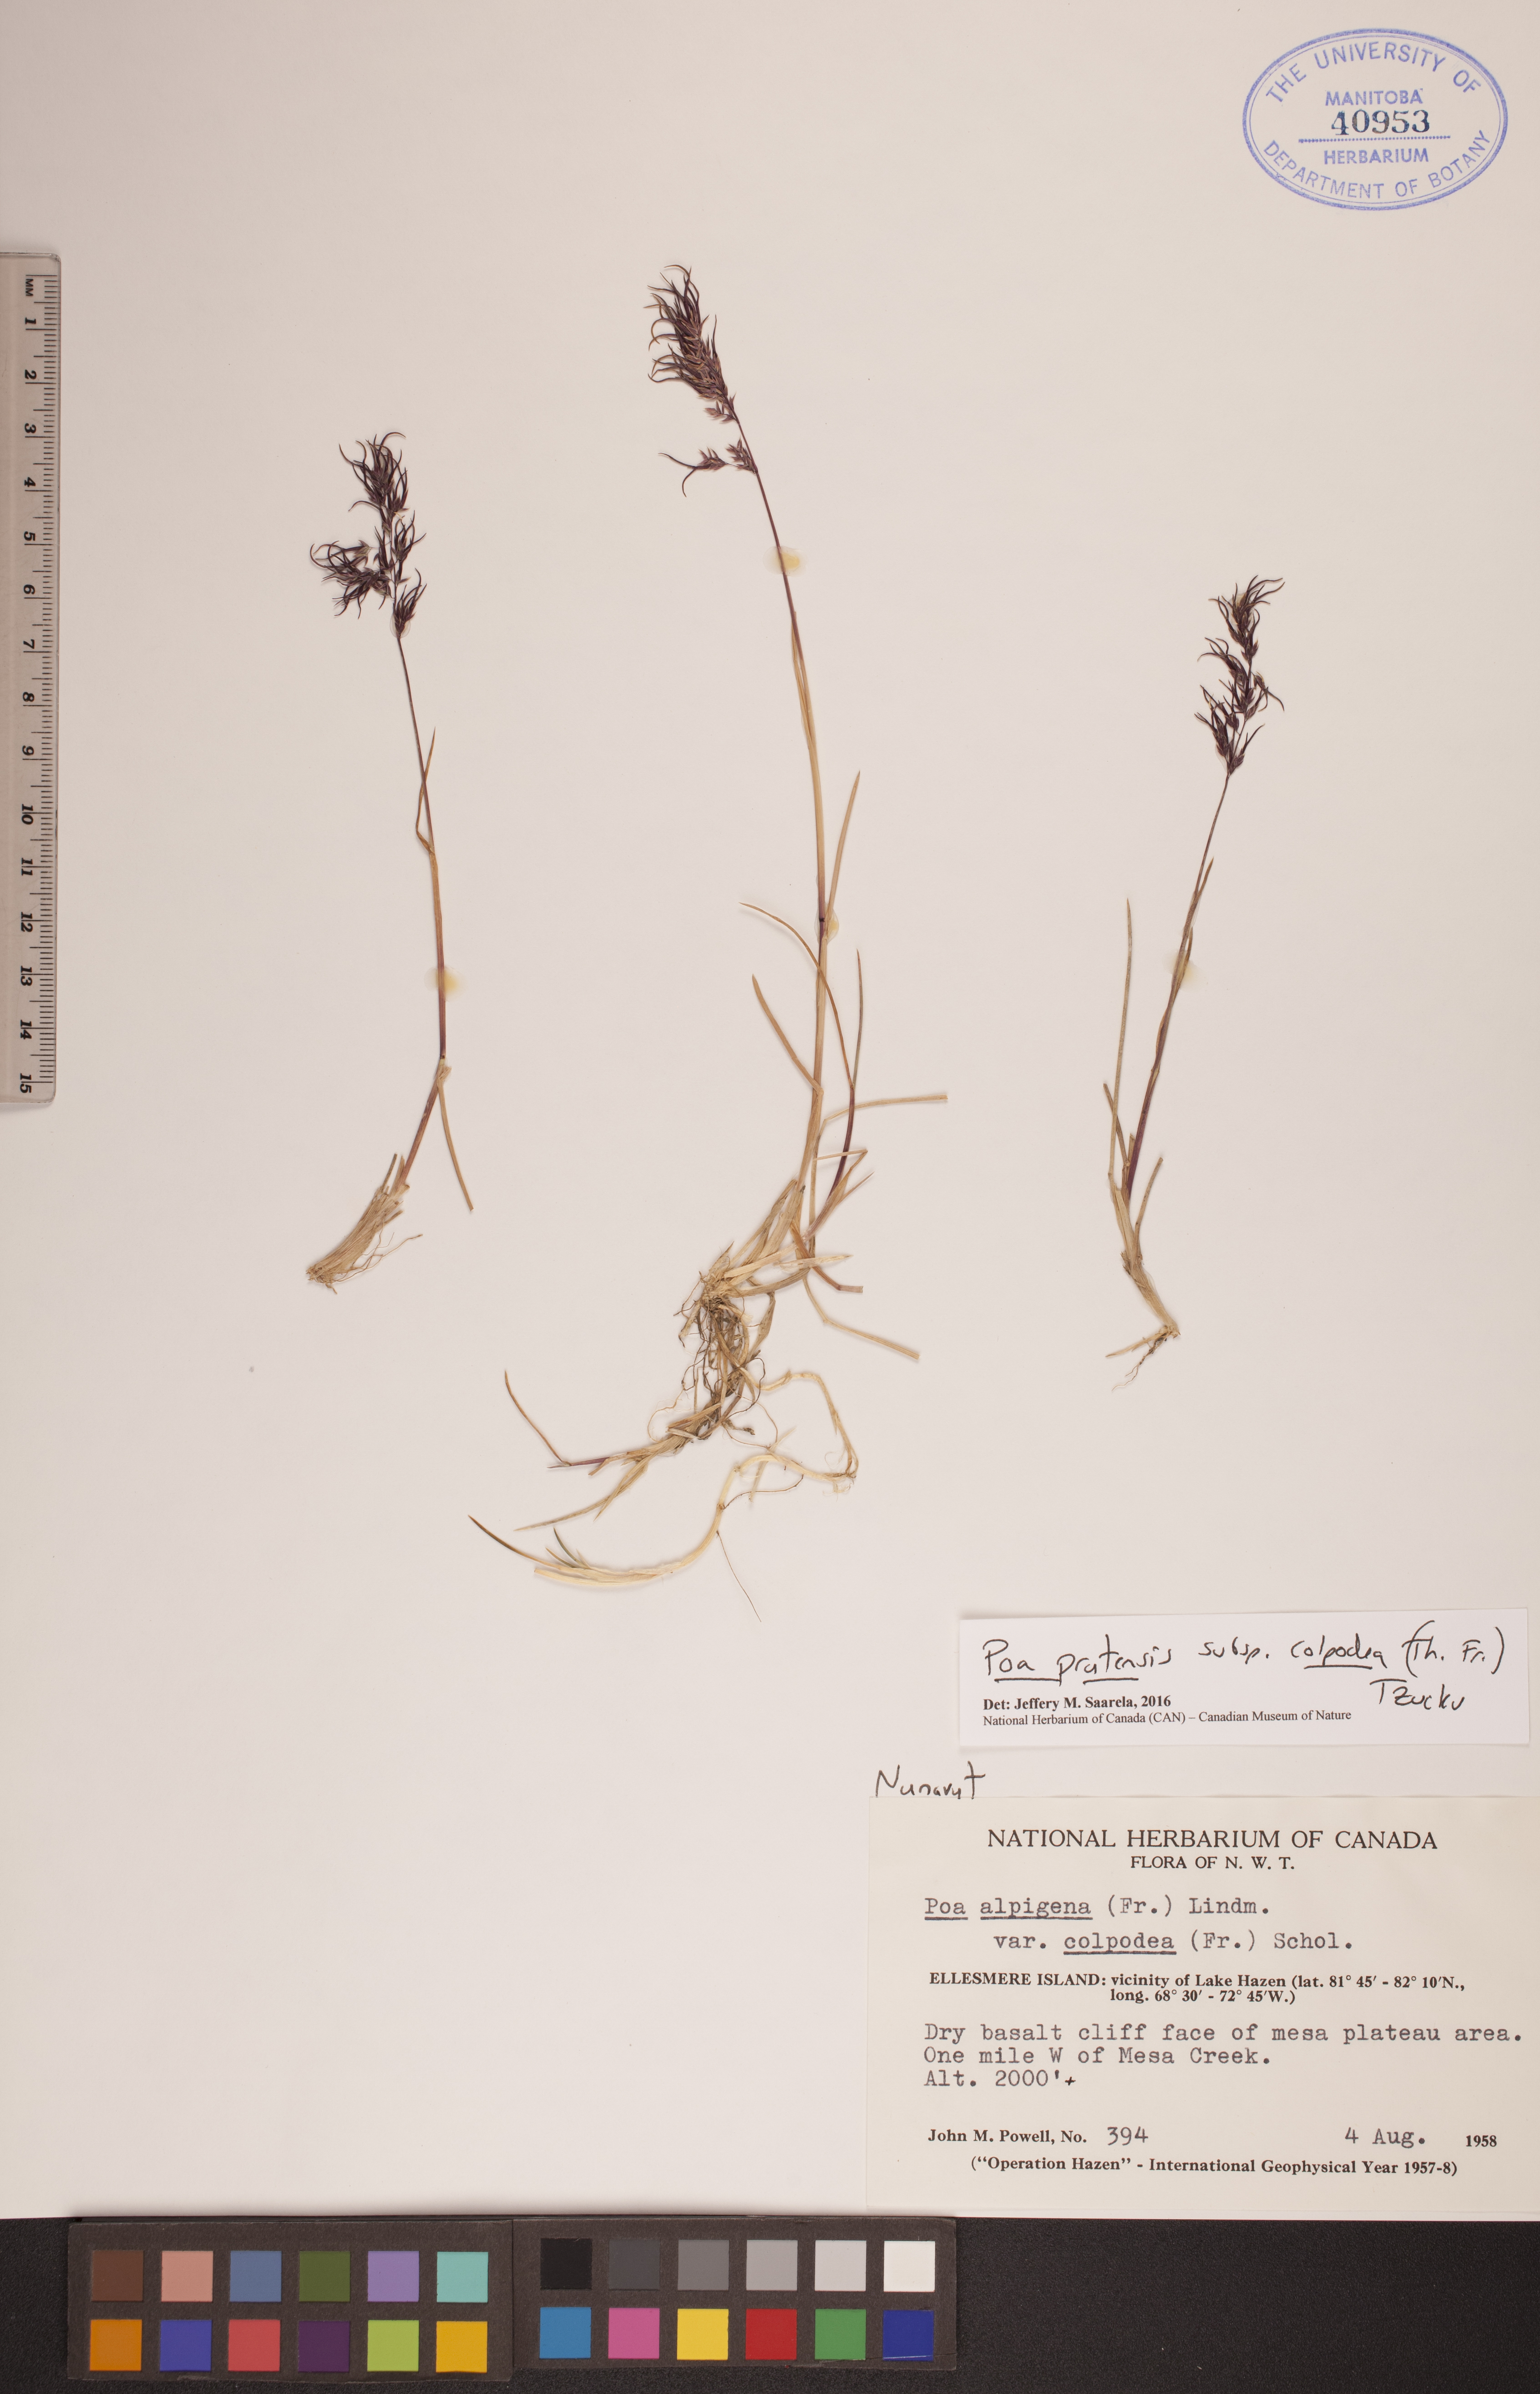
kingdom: Plantae
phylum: Tracheophyta
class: Liliopsida
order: Poales
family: Poaceae
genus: Poa
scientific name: Poa lindebergii
